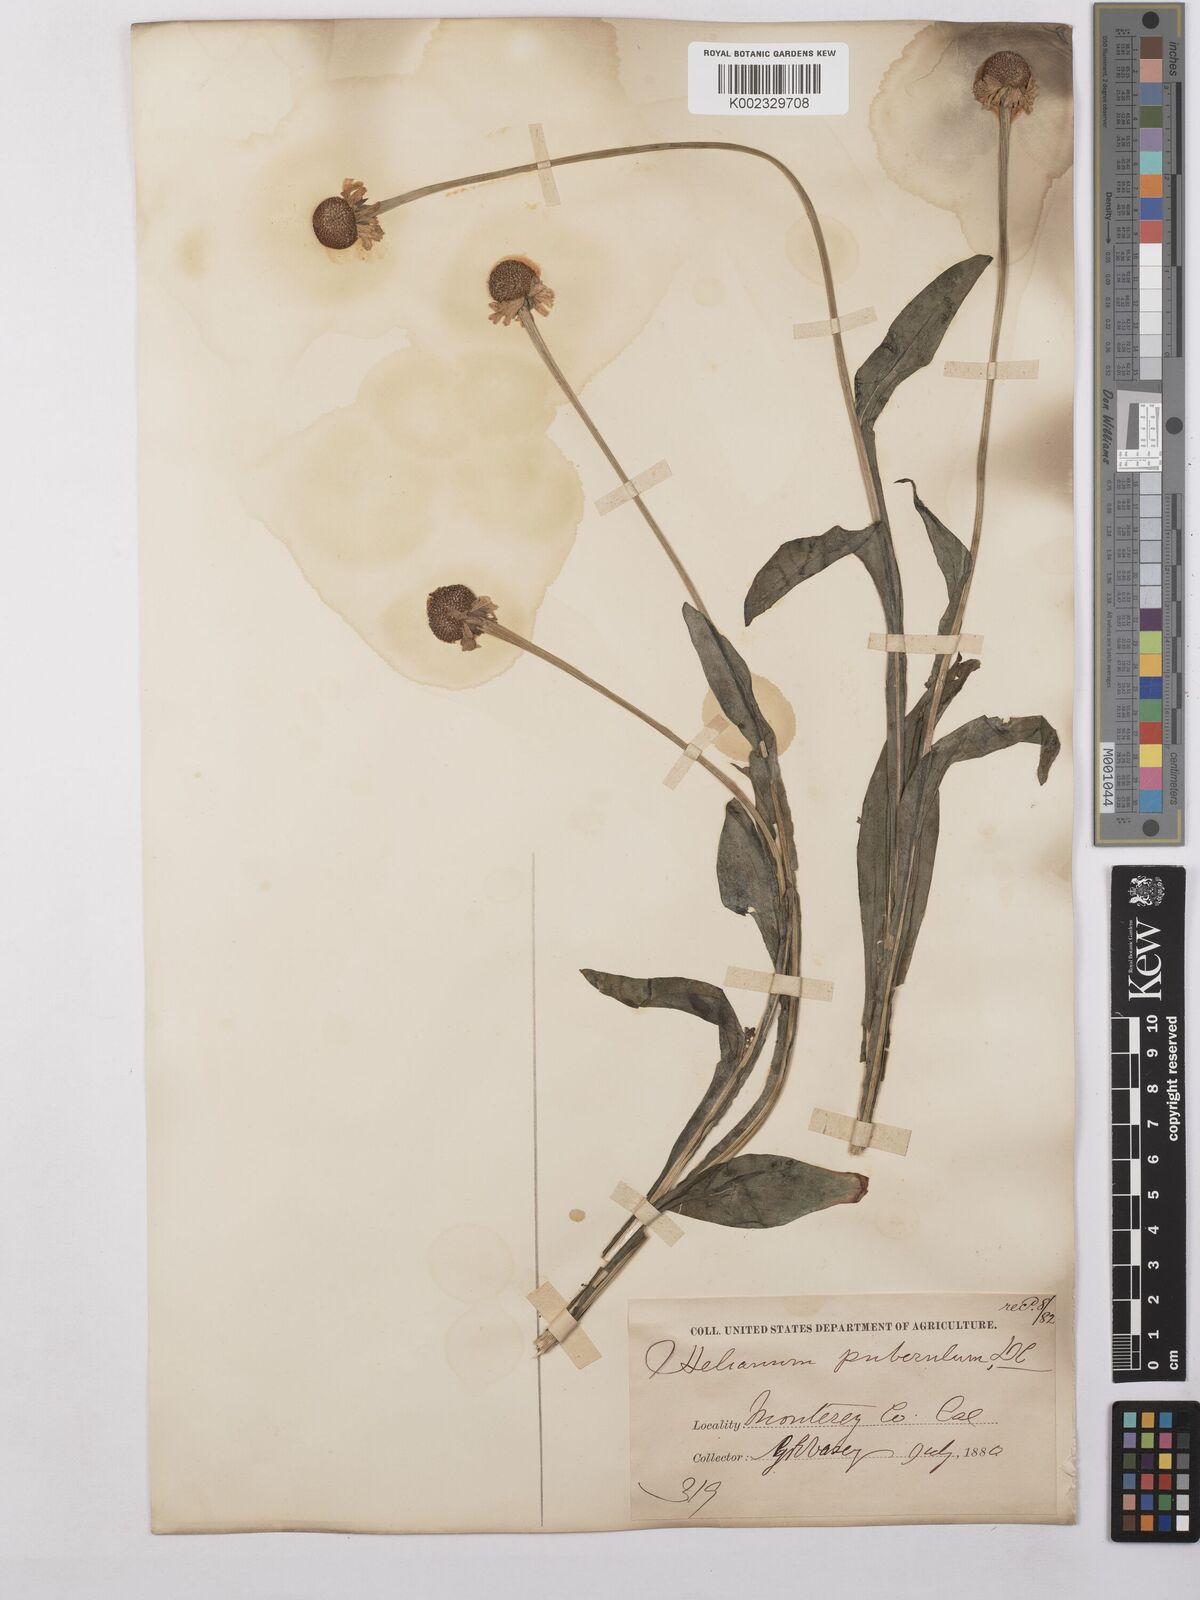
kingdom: Plantae
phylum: Tracheophyta
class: Magnoliopsida
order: Asterales
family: Asteraceae
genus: Helenium
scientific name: Helenium puberulum
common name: Sneezewort
